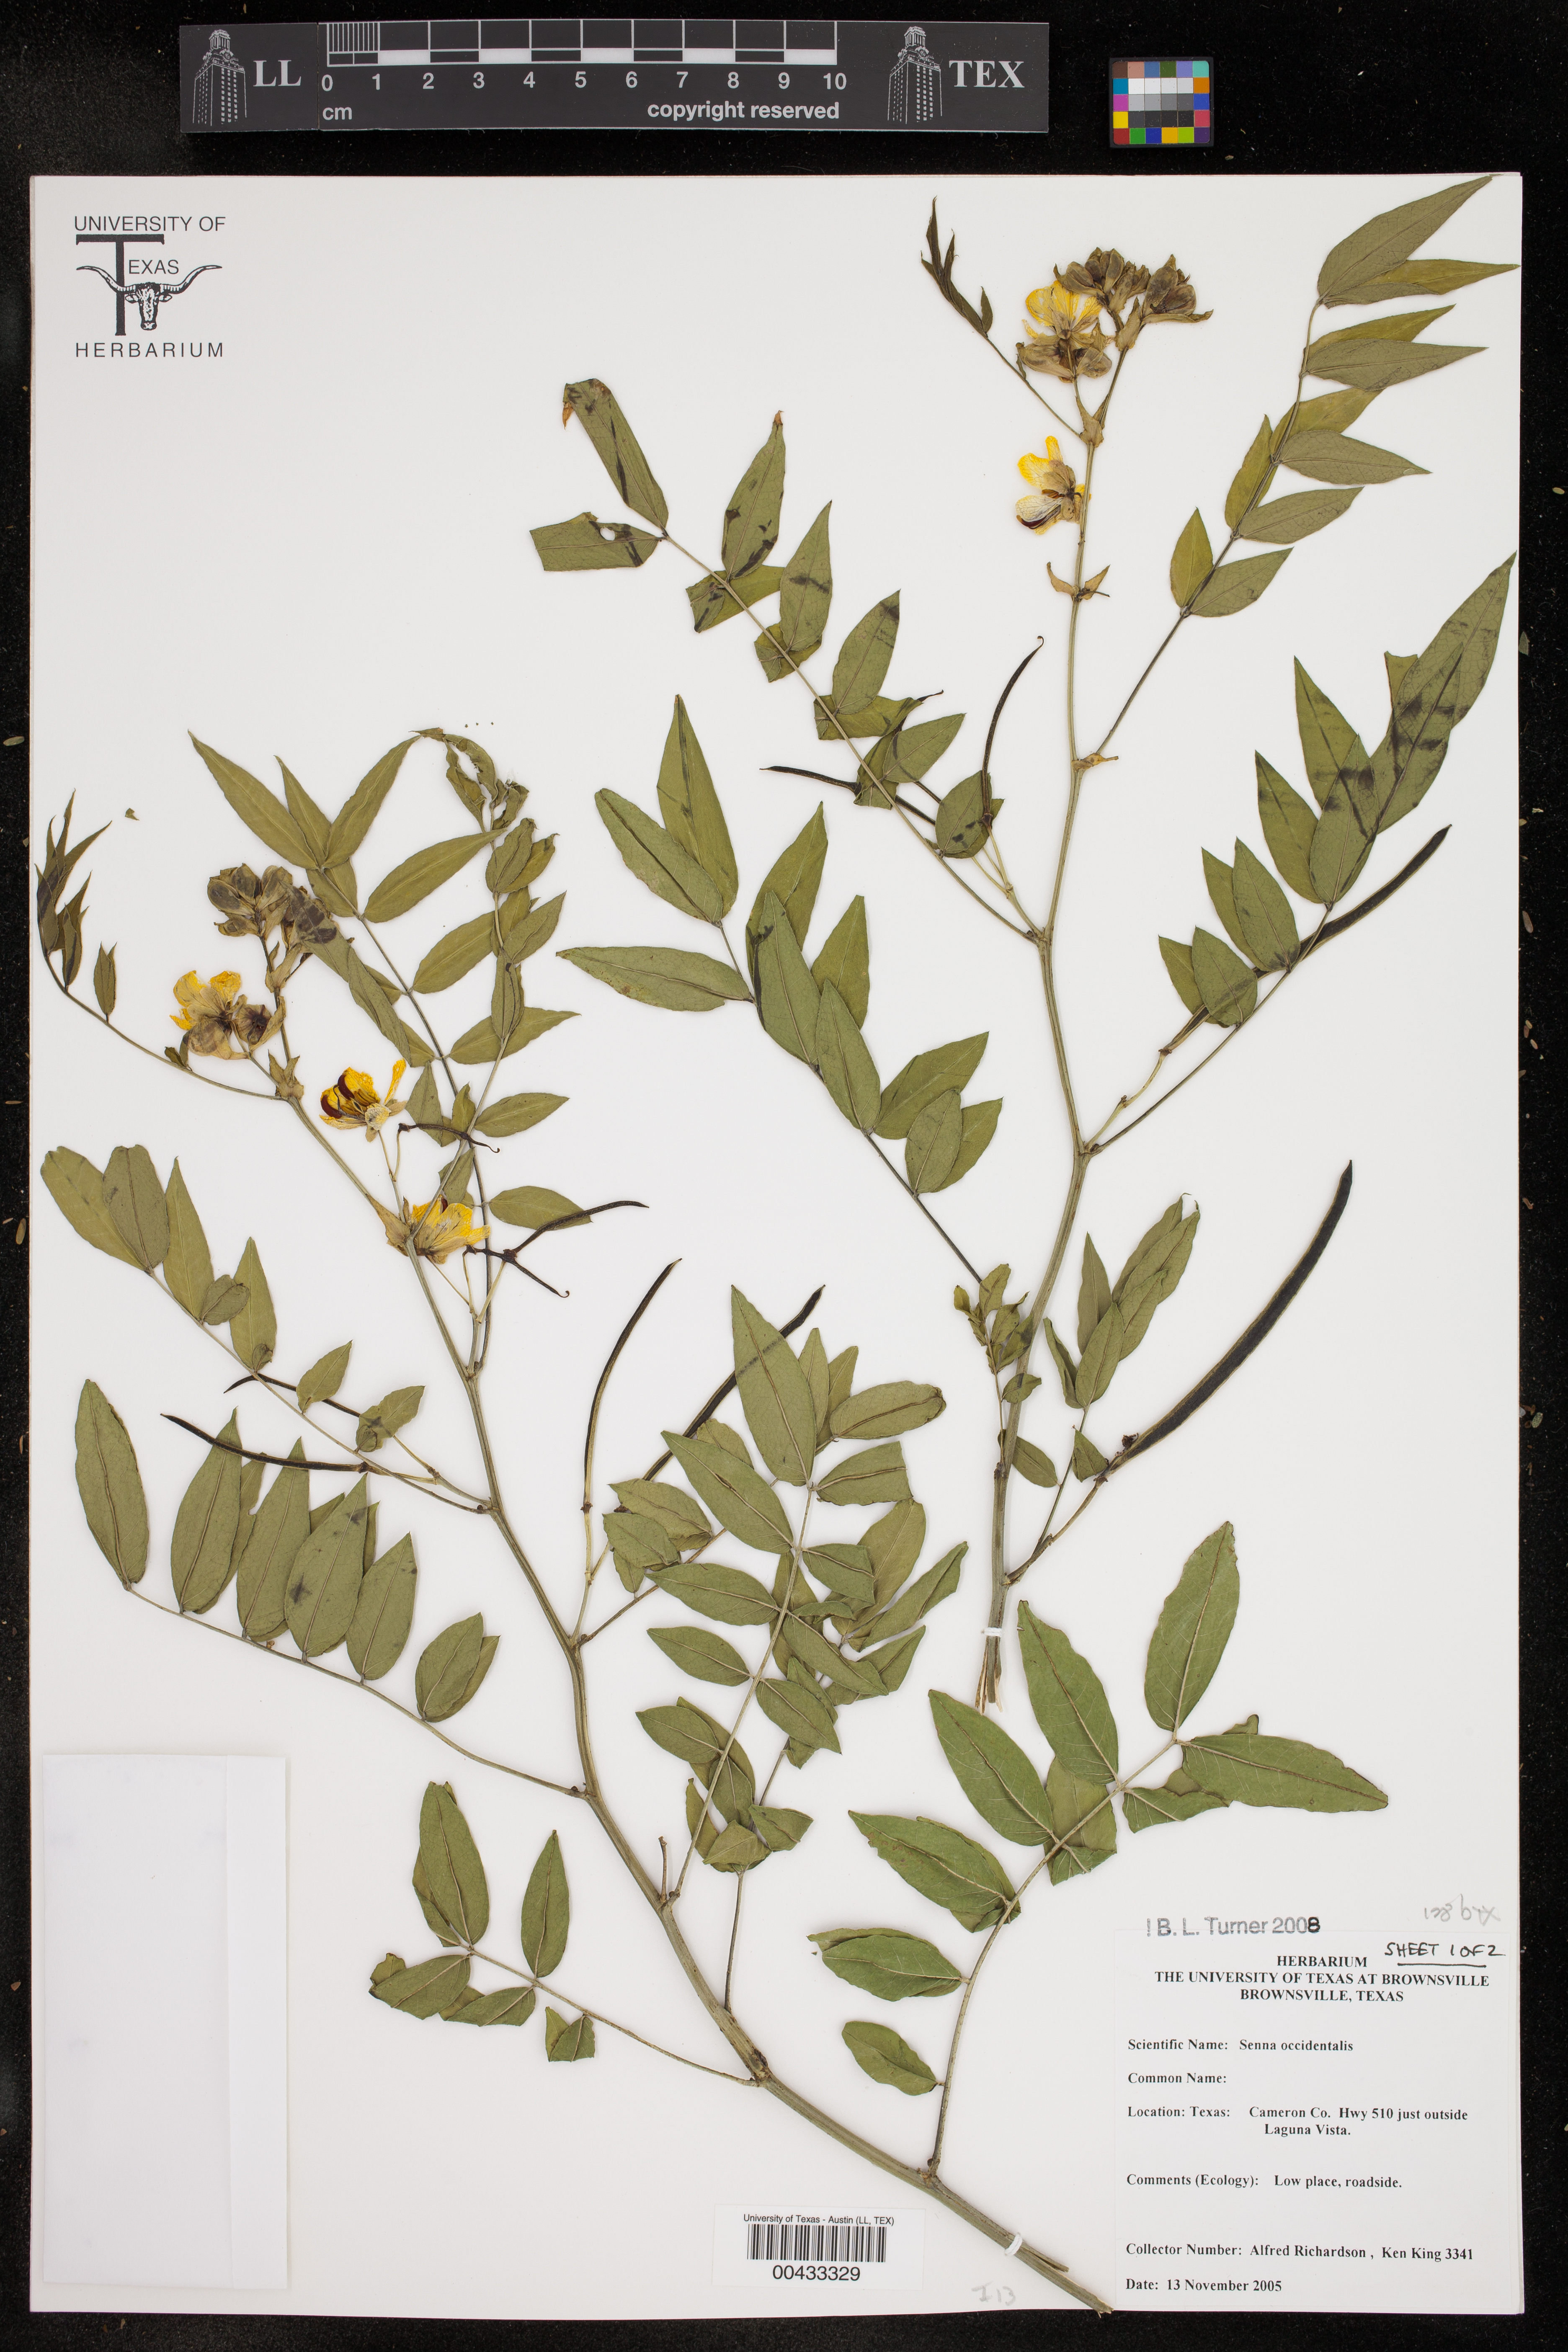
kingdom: Plantae
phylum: Tracheophyta
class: Magnoliopsida
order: Fabales
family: Fabaceae
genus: Senna
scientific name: Senna occidentalis
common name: Septicweed
